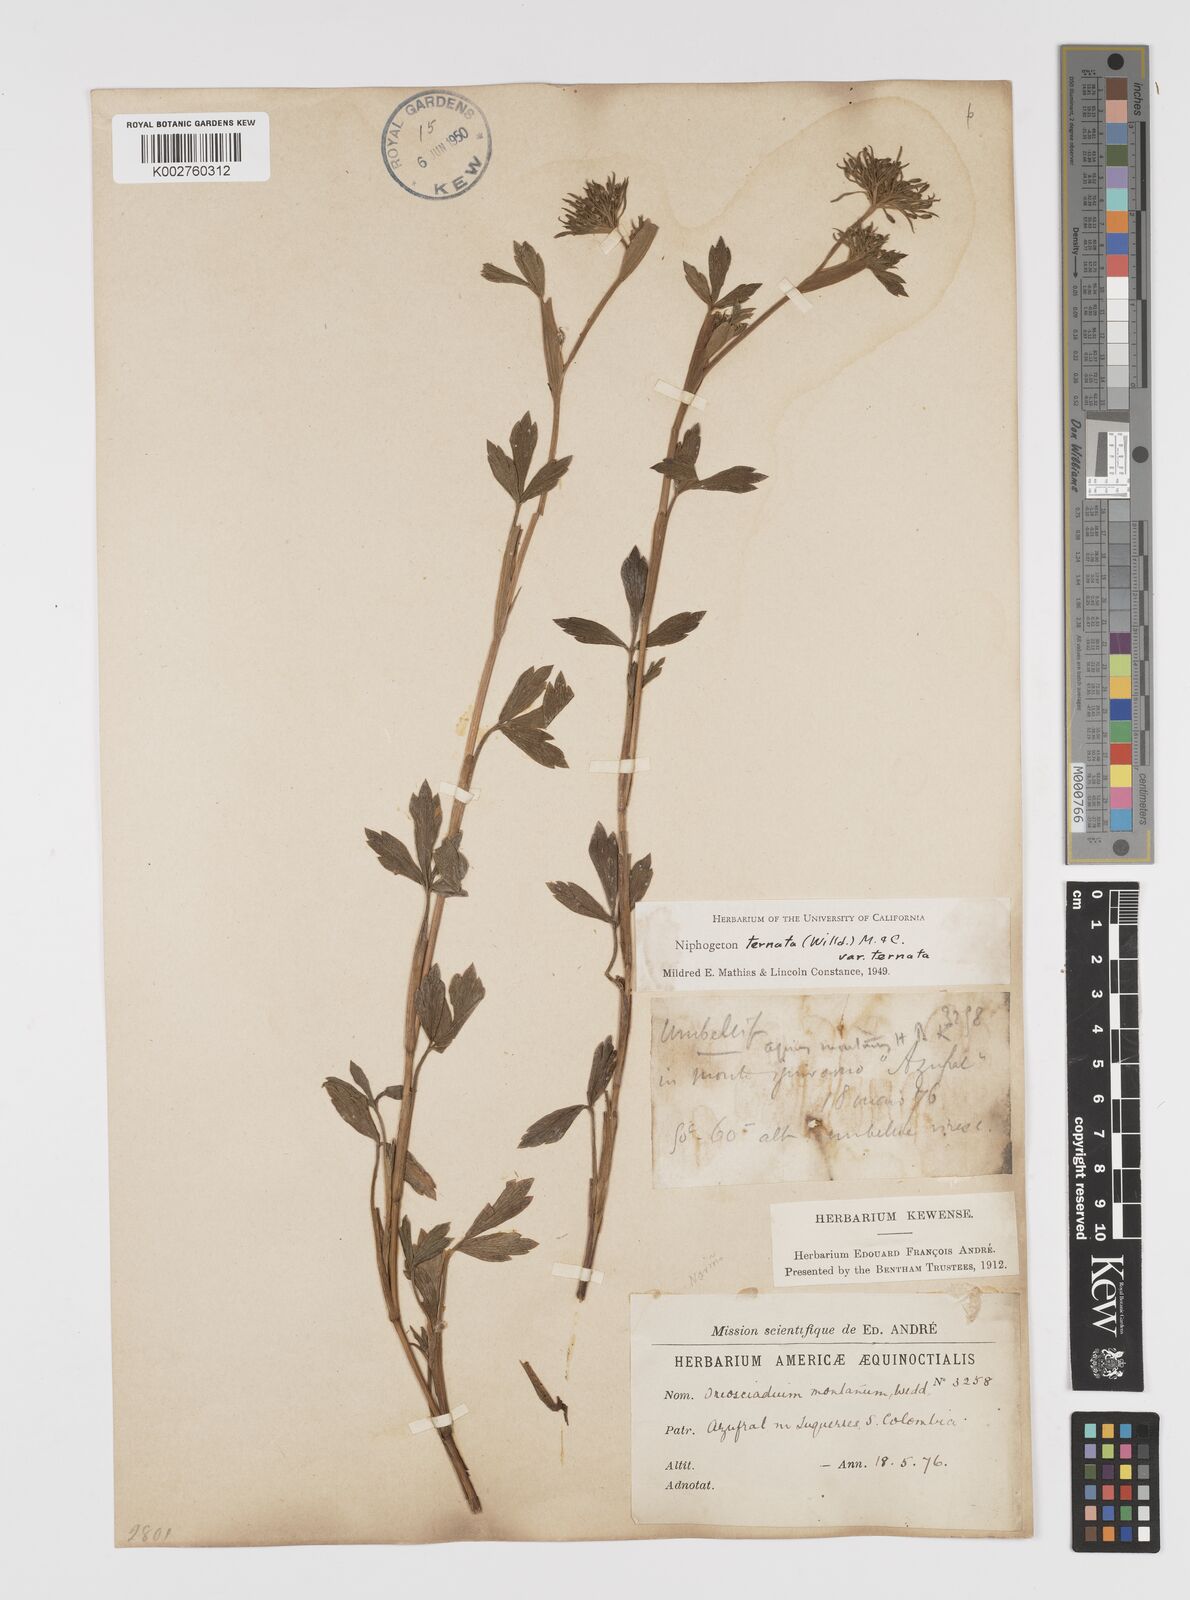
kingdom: Plantae
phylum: Tracheophyta
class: Magnoliopsida
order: Apiales
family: Apiaceae
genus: Niphogeton
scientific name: Niphogeton ternata
